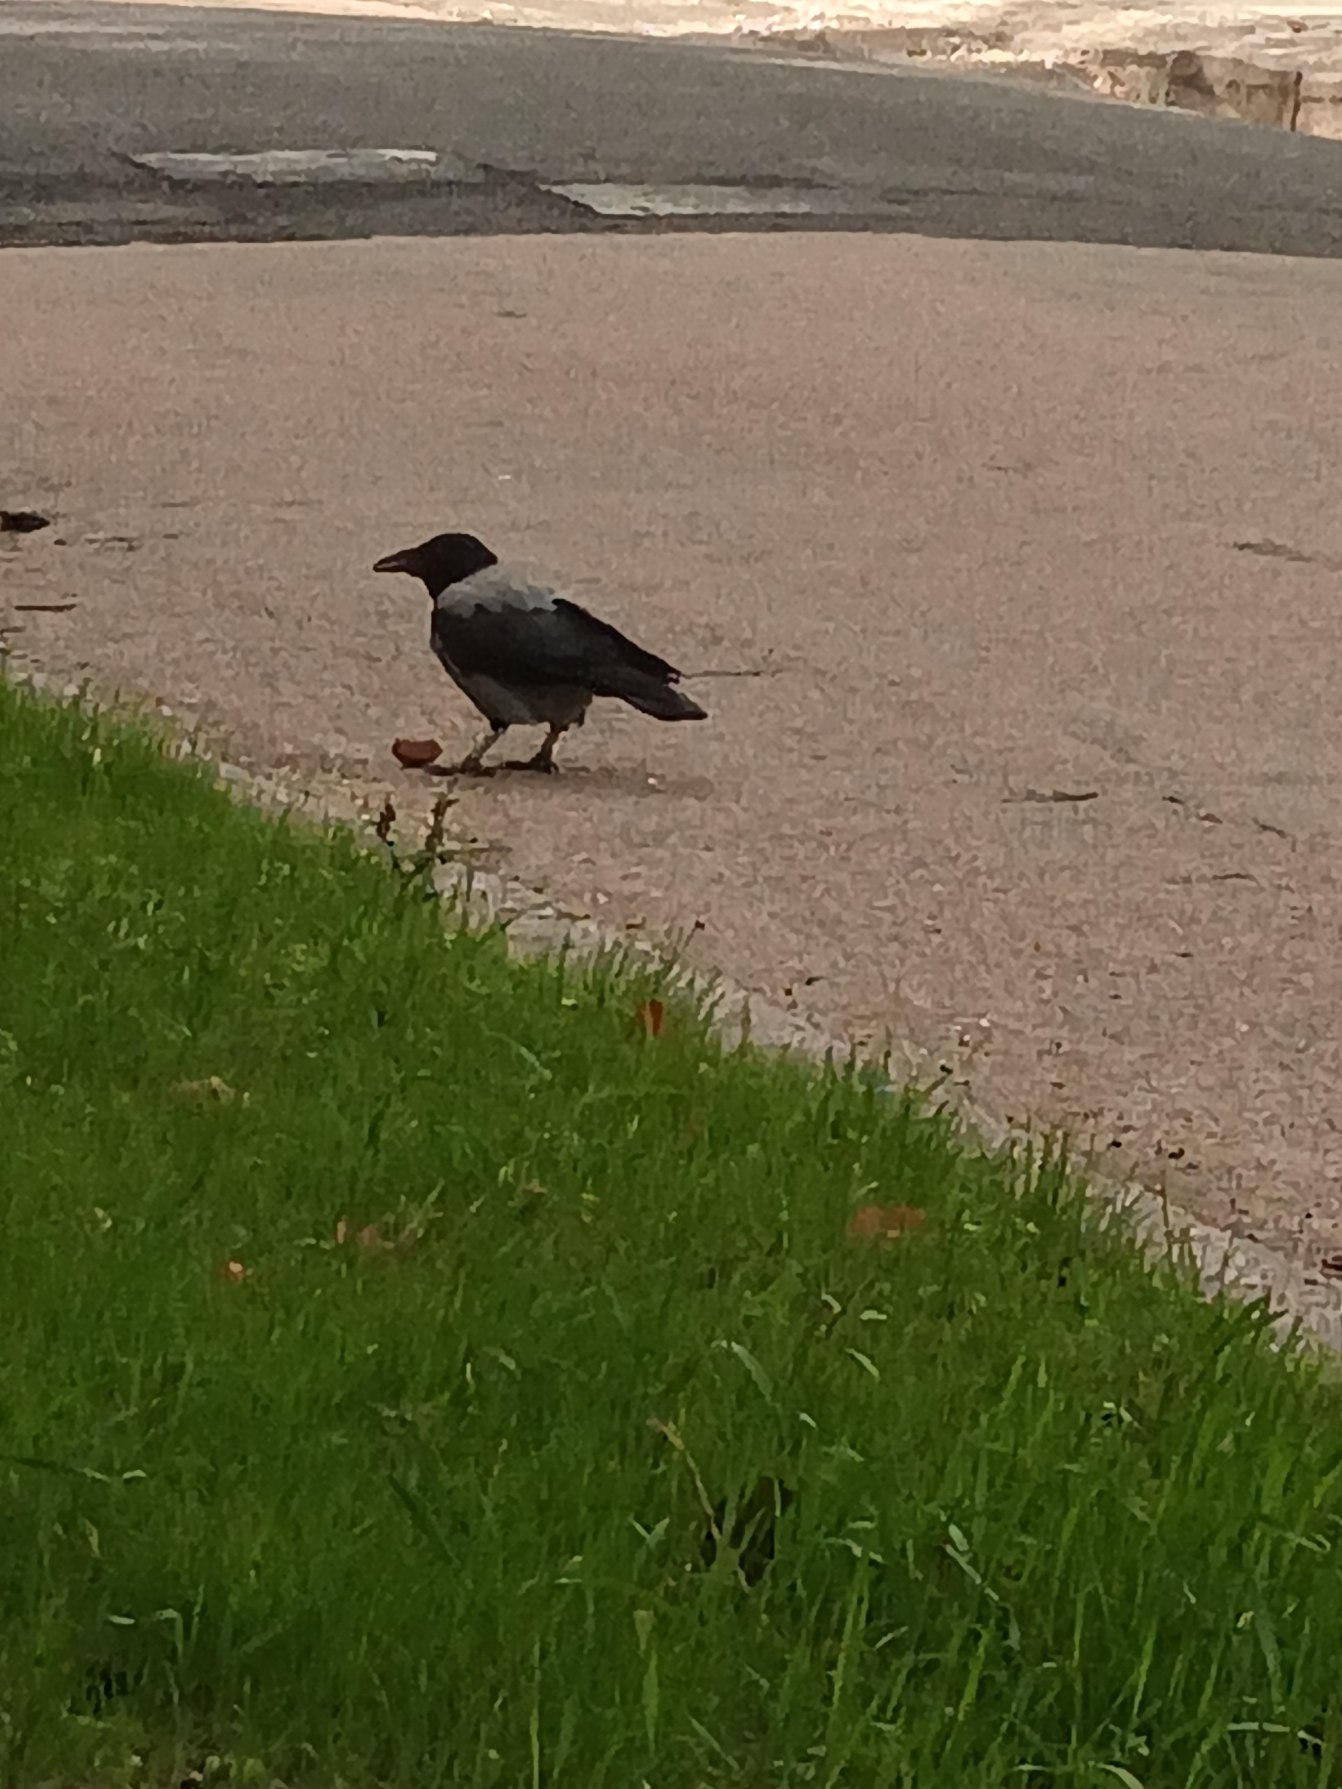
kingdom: Animalia
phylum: Chordata
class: Aves
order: Passeriformes
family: Corvidae
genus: Corvus
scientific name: Corvus cornix
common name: Gråkrage
